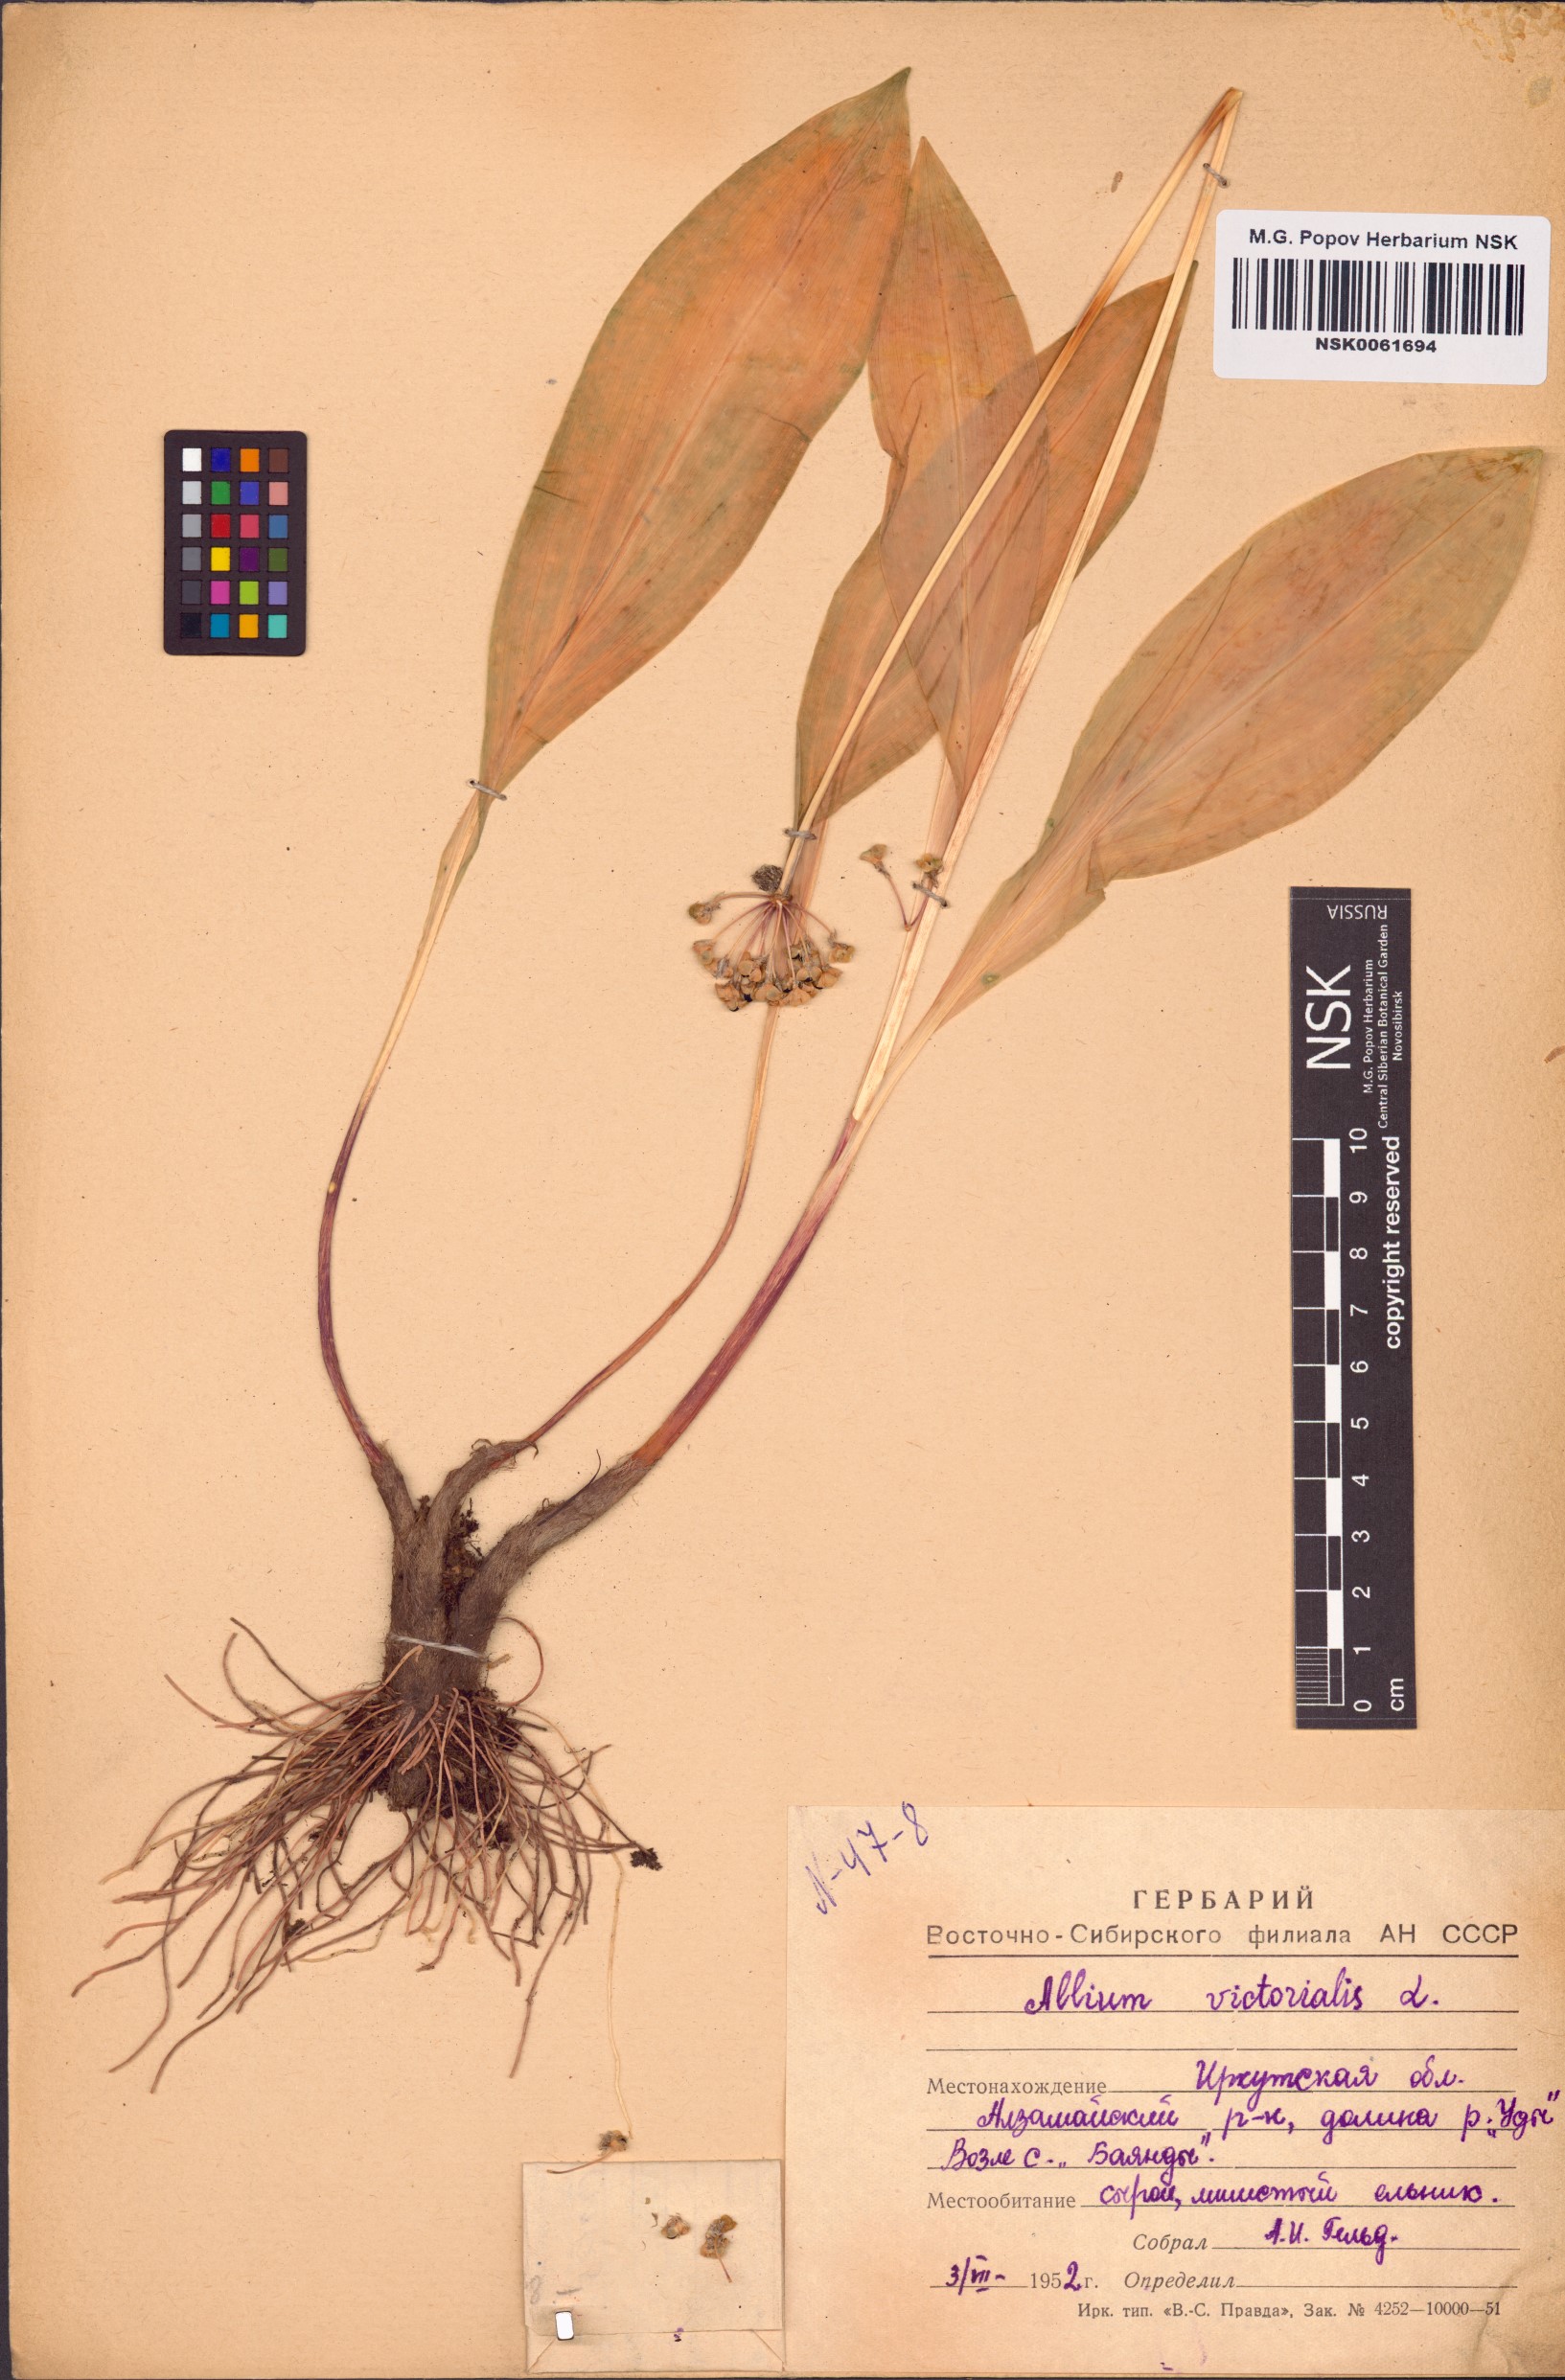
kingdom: Plantae
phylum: Tracheophyta
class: Liliopsida
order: Asparagales
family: Amaryllidaceae
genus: Allium
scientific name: Allium victorialis
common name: Alpine leek
